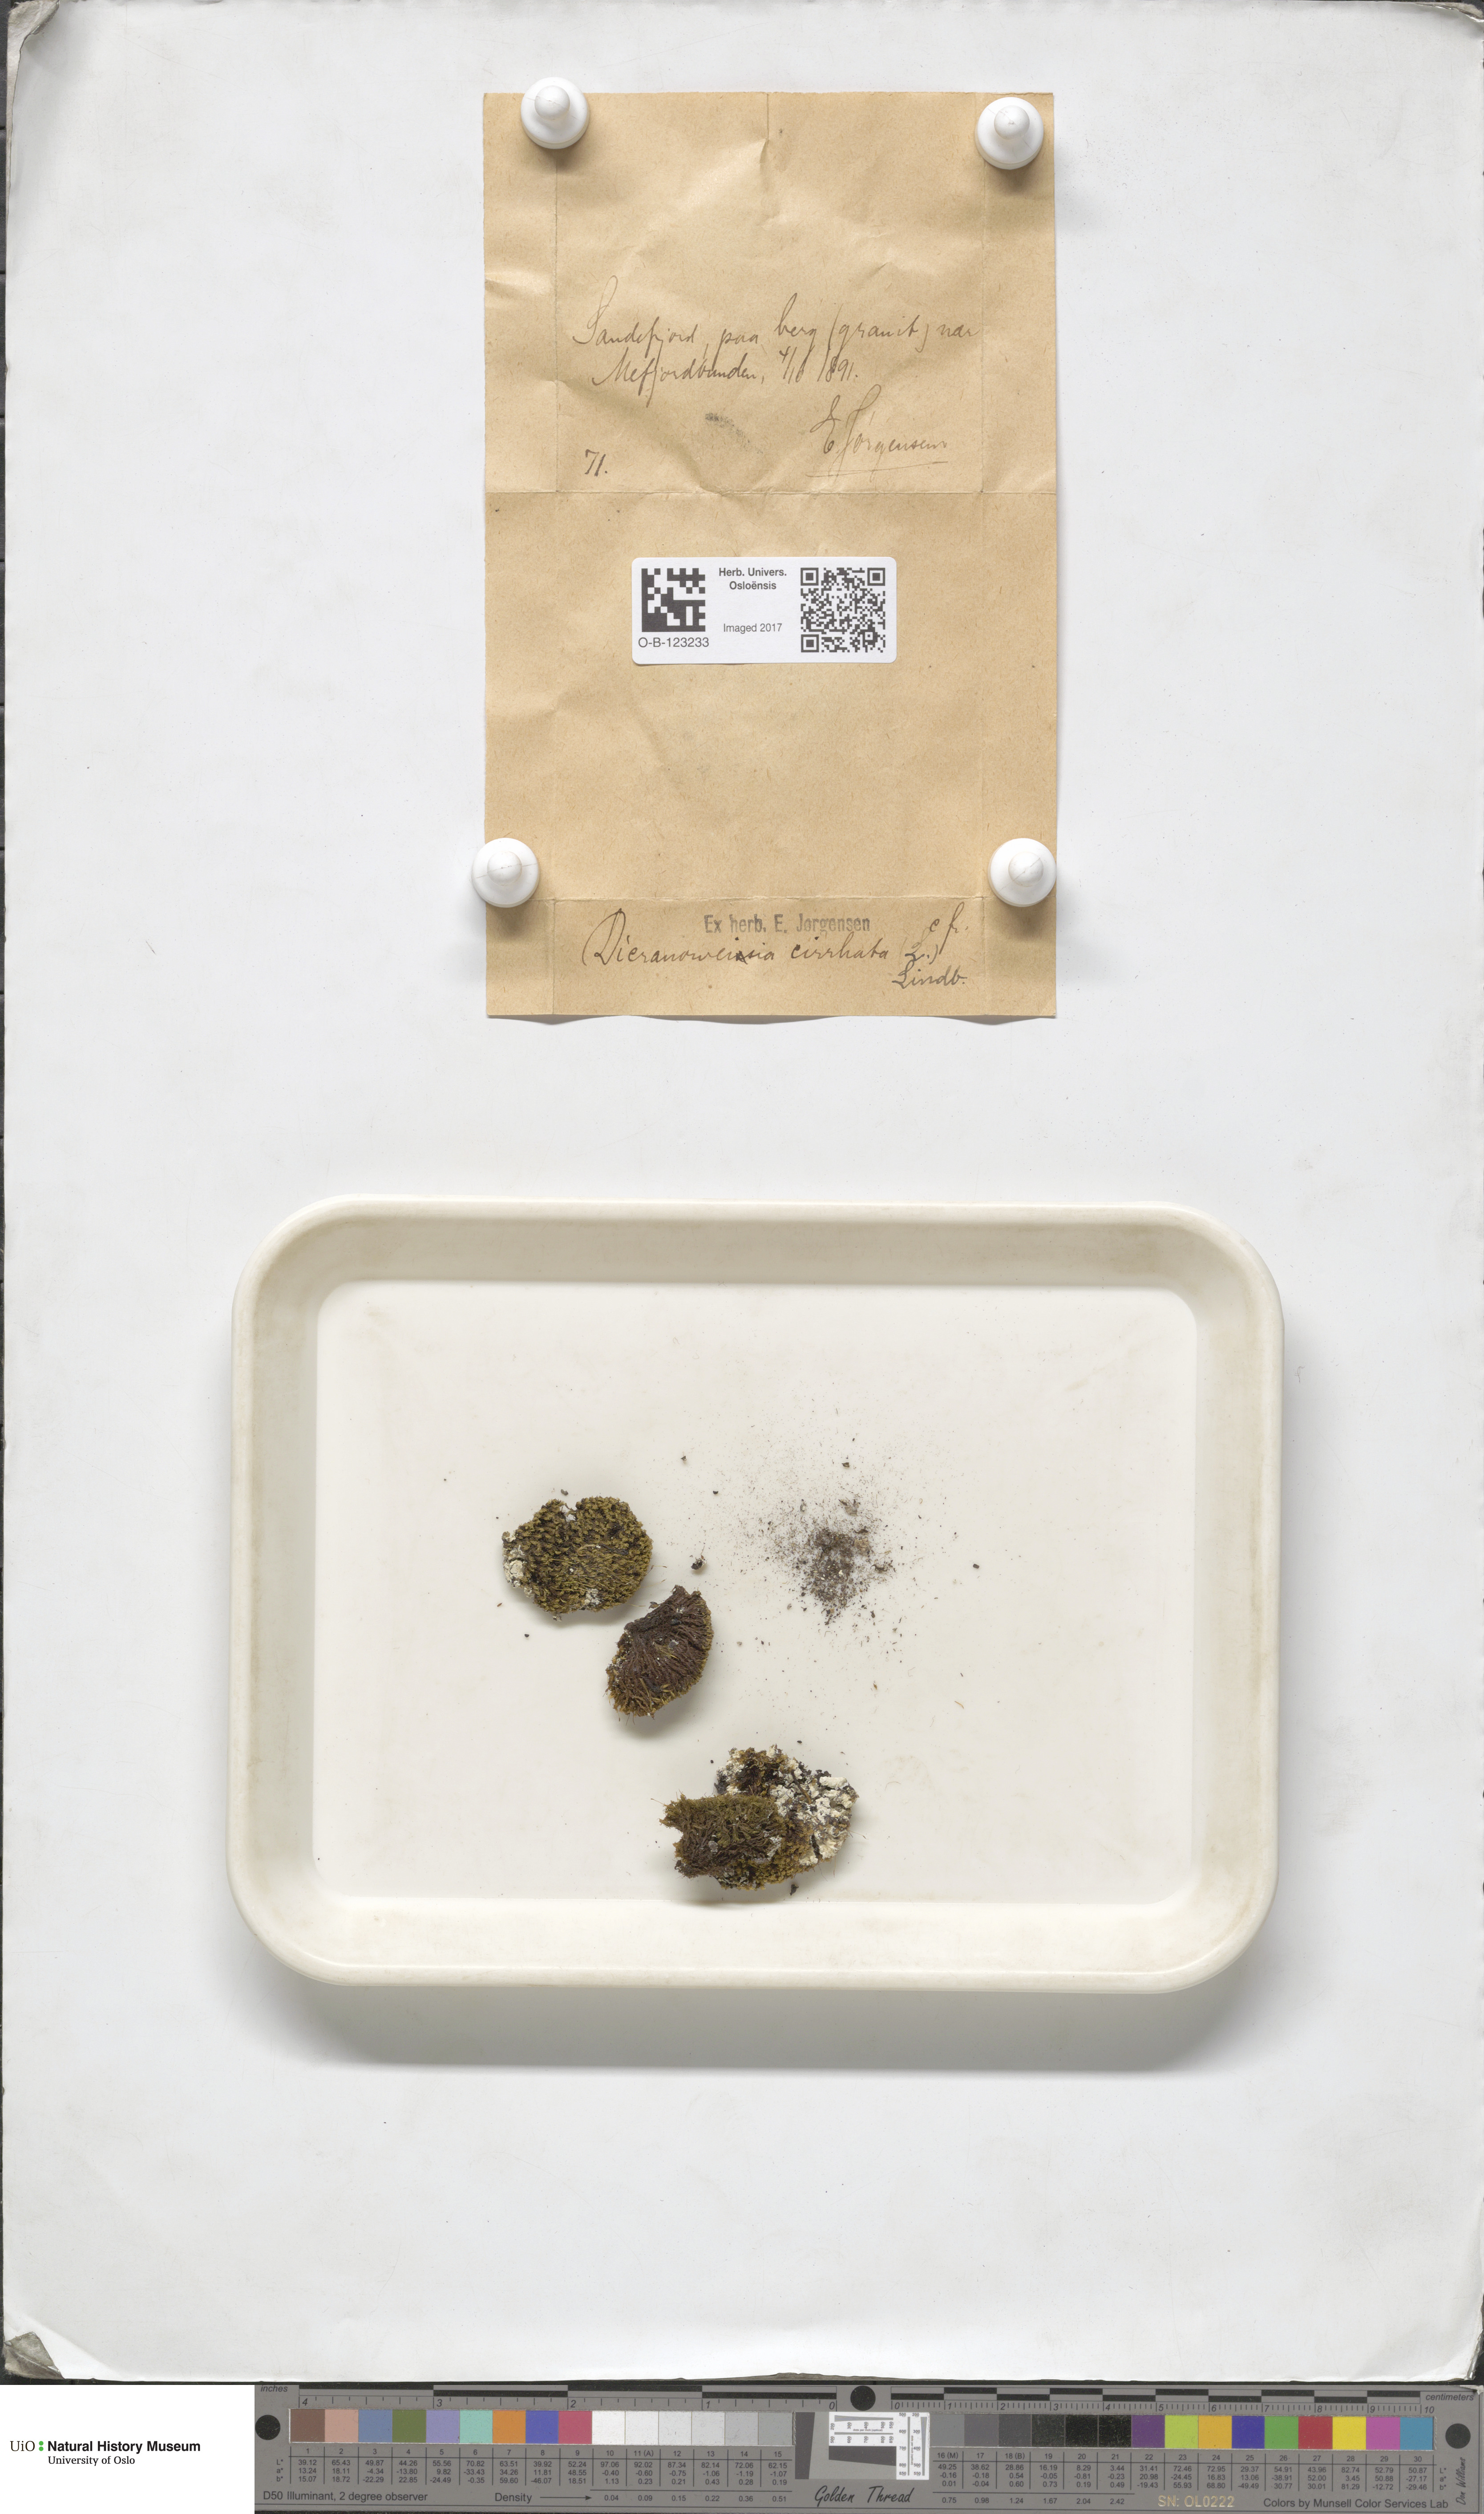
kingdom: Plantae
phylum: Bryophyta
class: Bryopsida
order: Dicranales
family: Rhabdoweisiaceae
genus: Dicranoweisia
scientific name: Dicranoweisia cirrata
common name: Common pincushion
